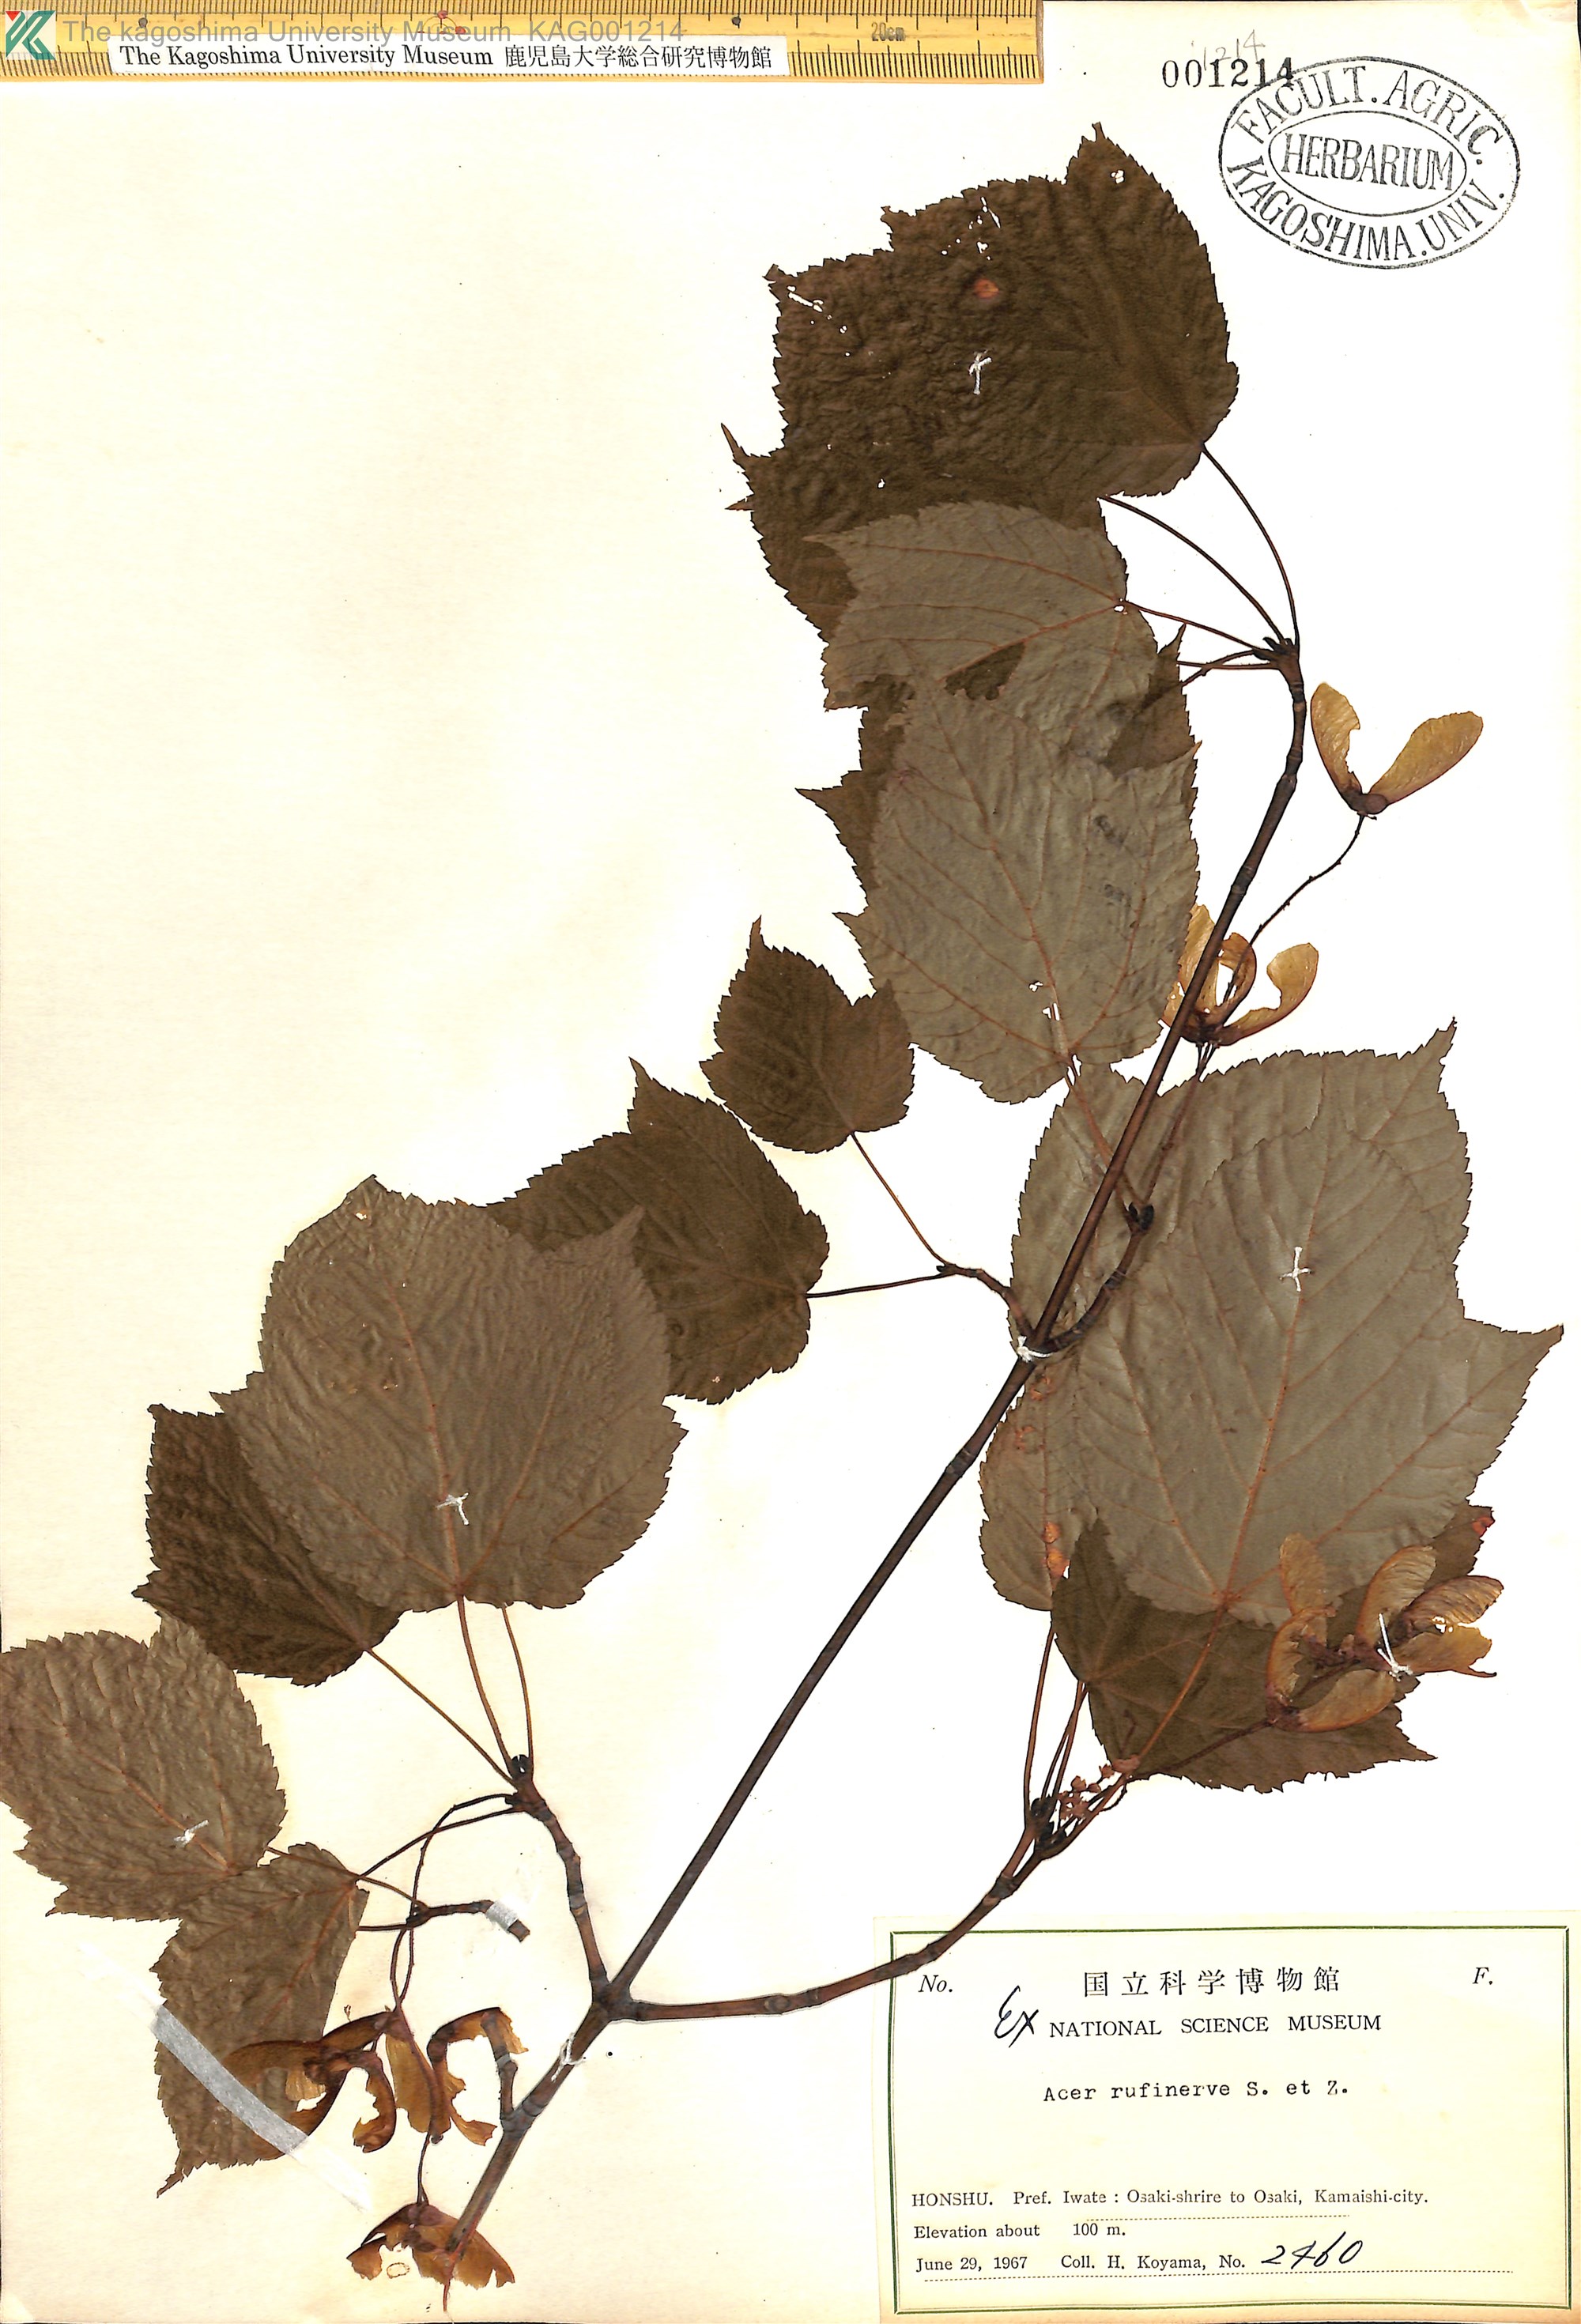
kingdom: Plantae
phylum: Tracheophyta
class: Magnoliopsida
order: Sapindales
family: Sapindaceae
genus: Acer
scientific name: Acer rufinerve
